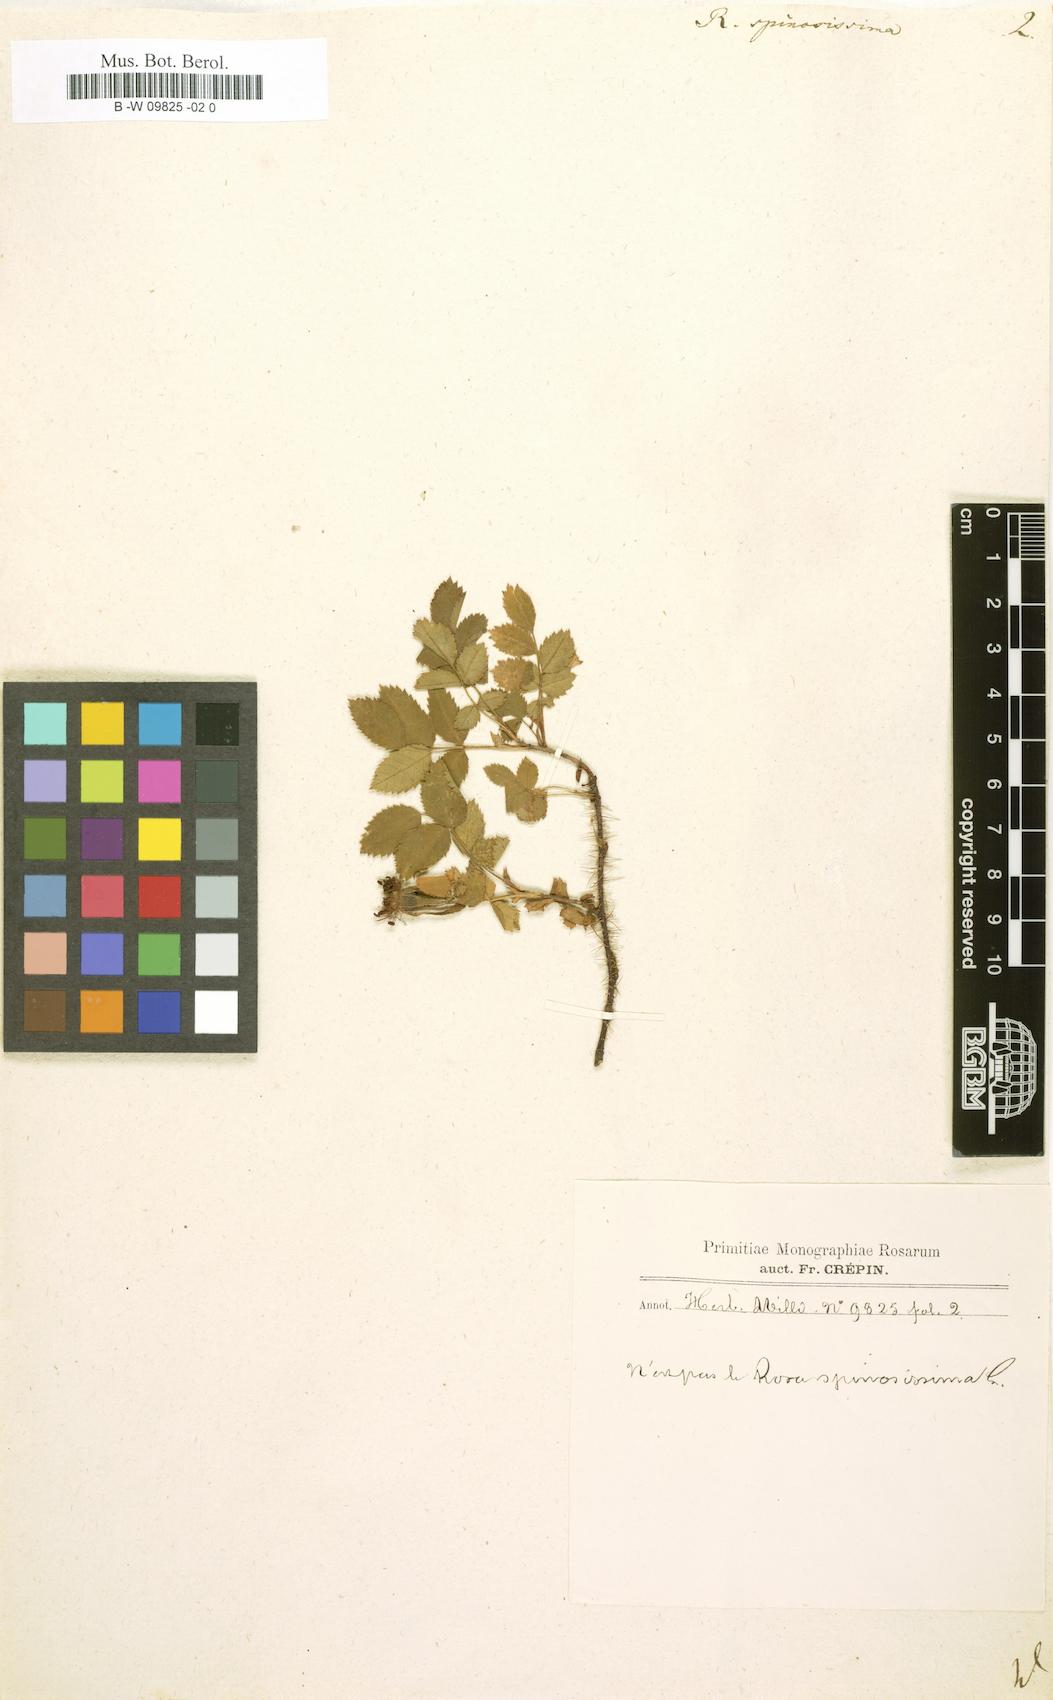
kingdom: Plantae
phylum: Tracheophyta
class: Magnoliopsida
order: Rosales
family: Rosaceae
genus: Rosa
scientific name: Rosa spinosissima
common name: Burnet rose
